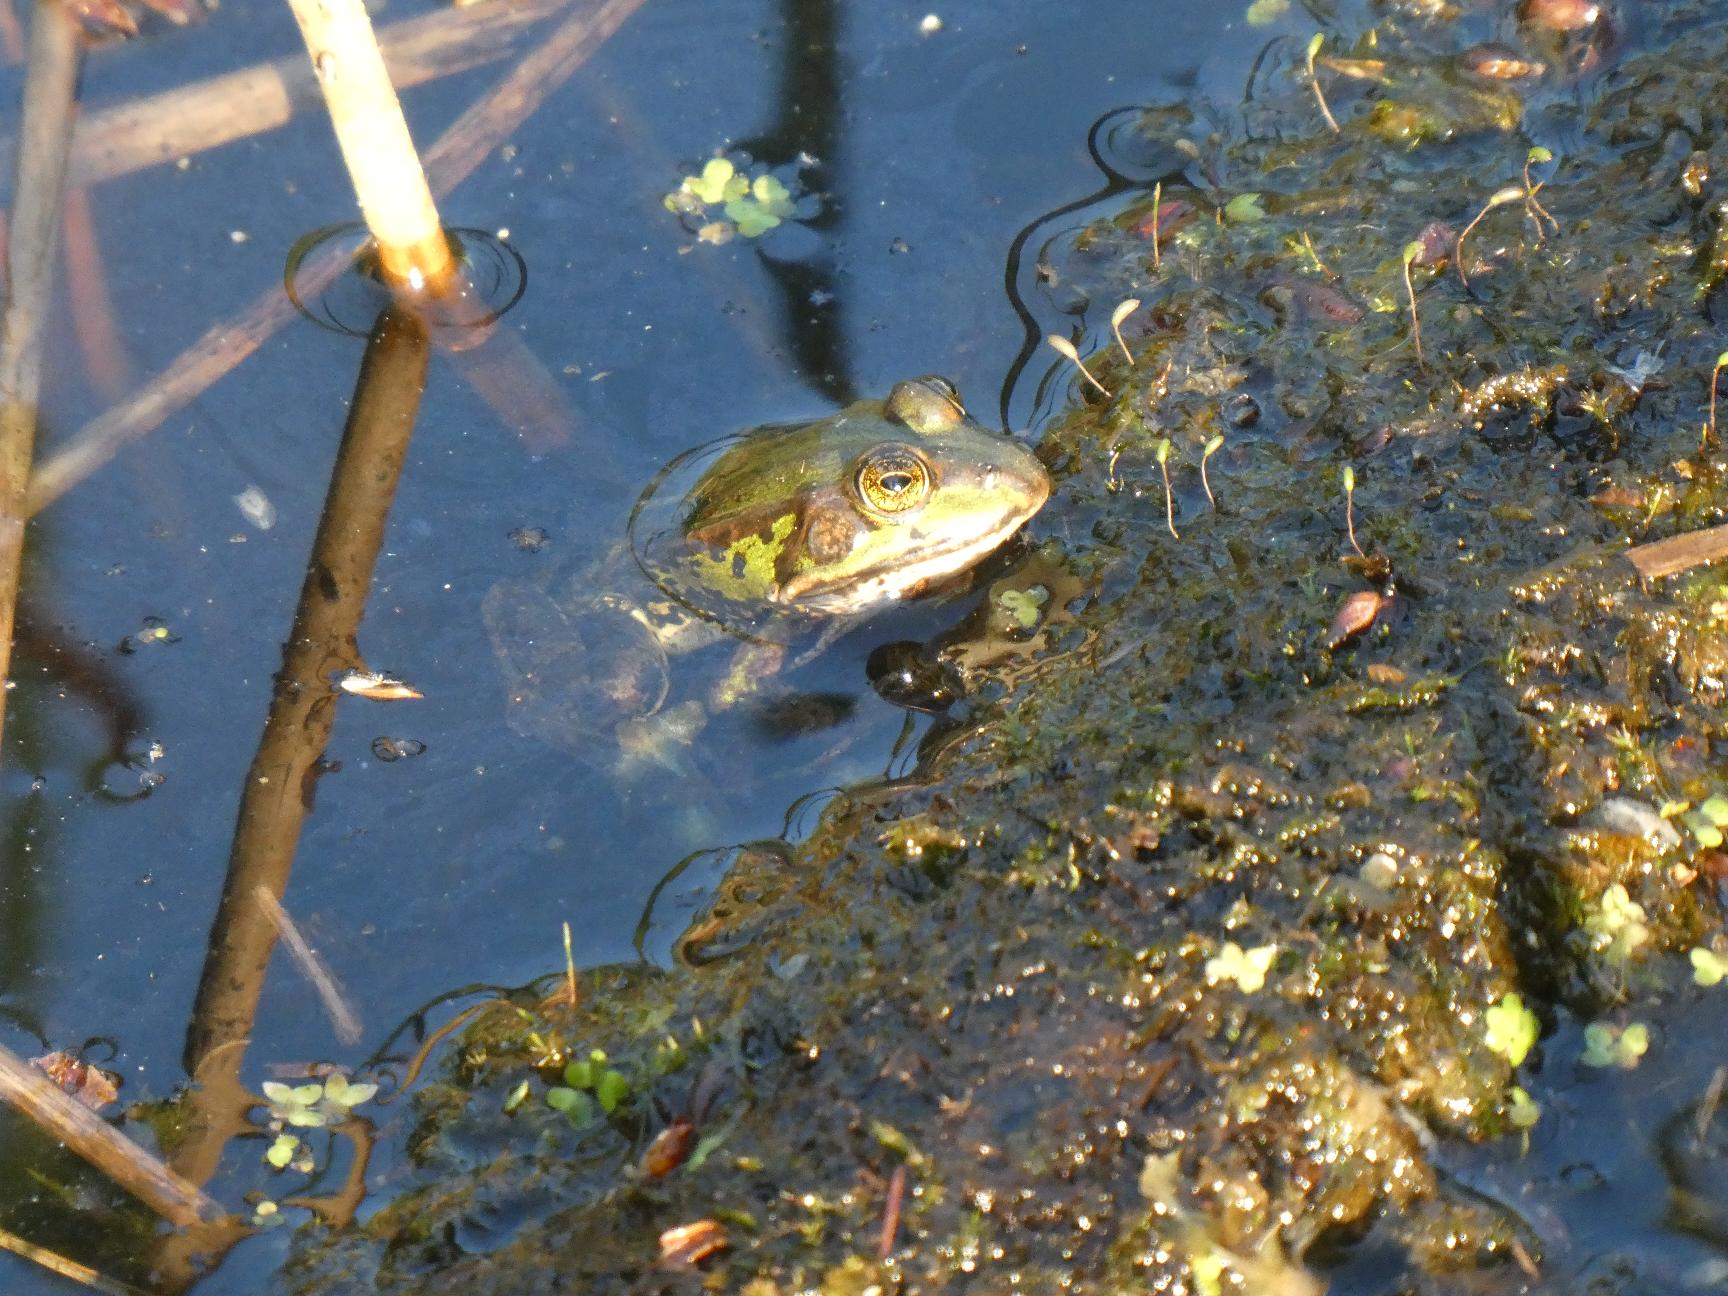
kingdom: Animalia
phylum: Chordata
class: Amphibia
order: Anura
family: Ranidae
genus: Pelophylax
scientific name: Pelophylax lessonae
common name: Grøn frø
